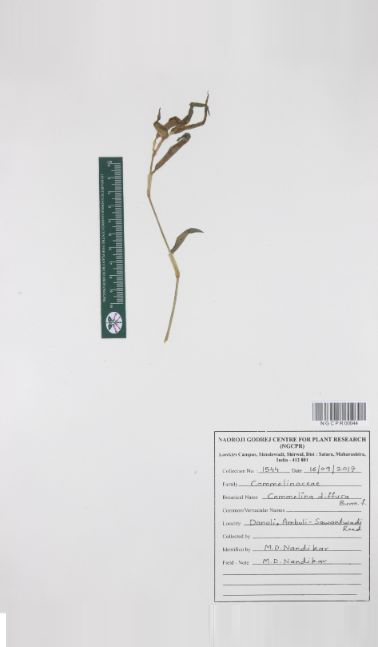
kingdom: Plantae
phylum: Tracheophyta
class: Liliopsida
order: Commelinales
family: Commelinaceae
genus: Commelina
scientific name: Commelina diffusa
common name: Climbing dayflower
